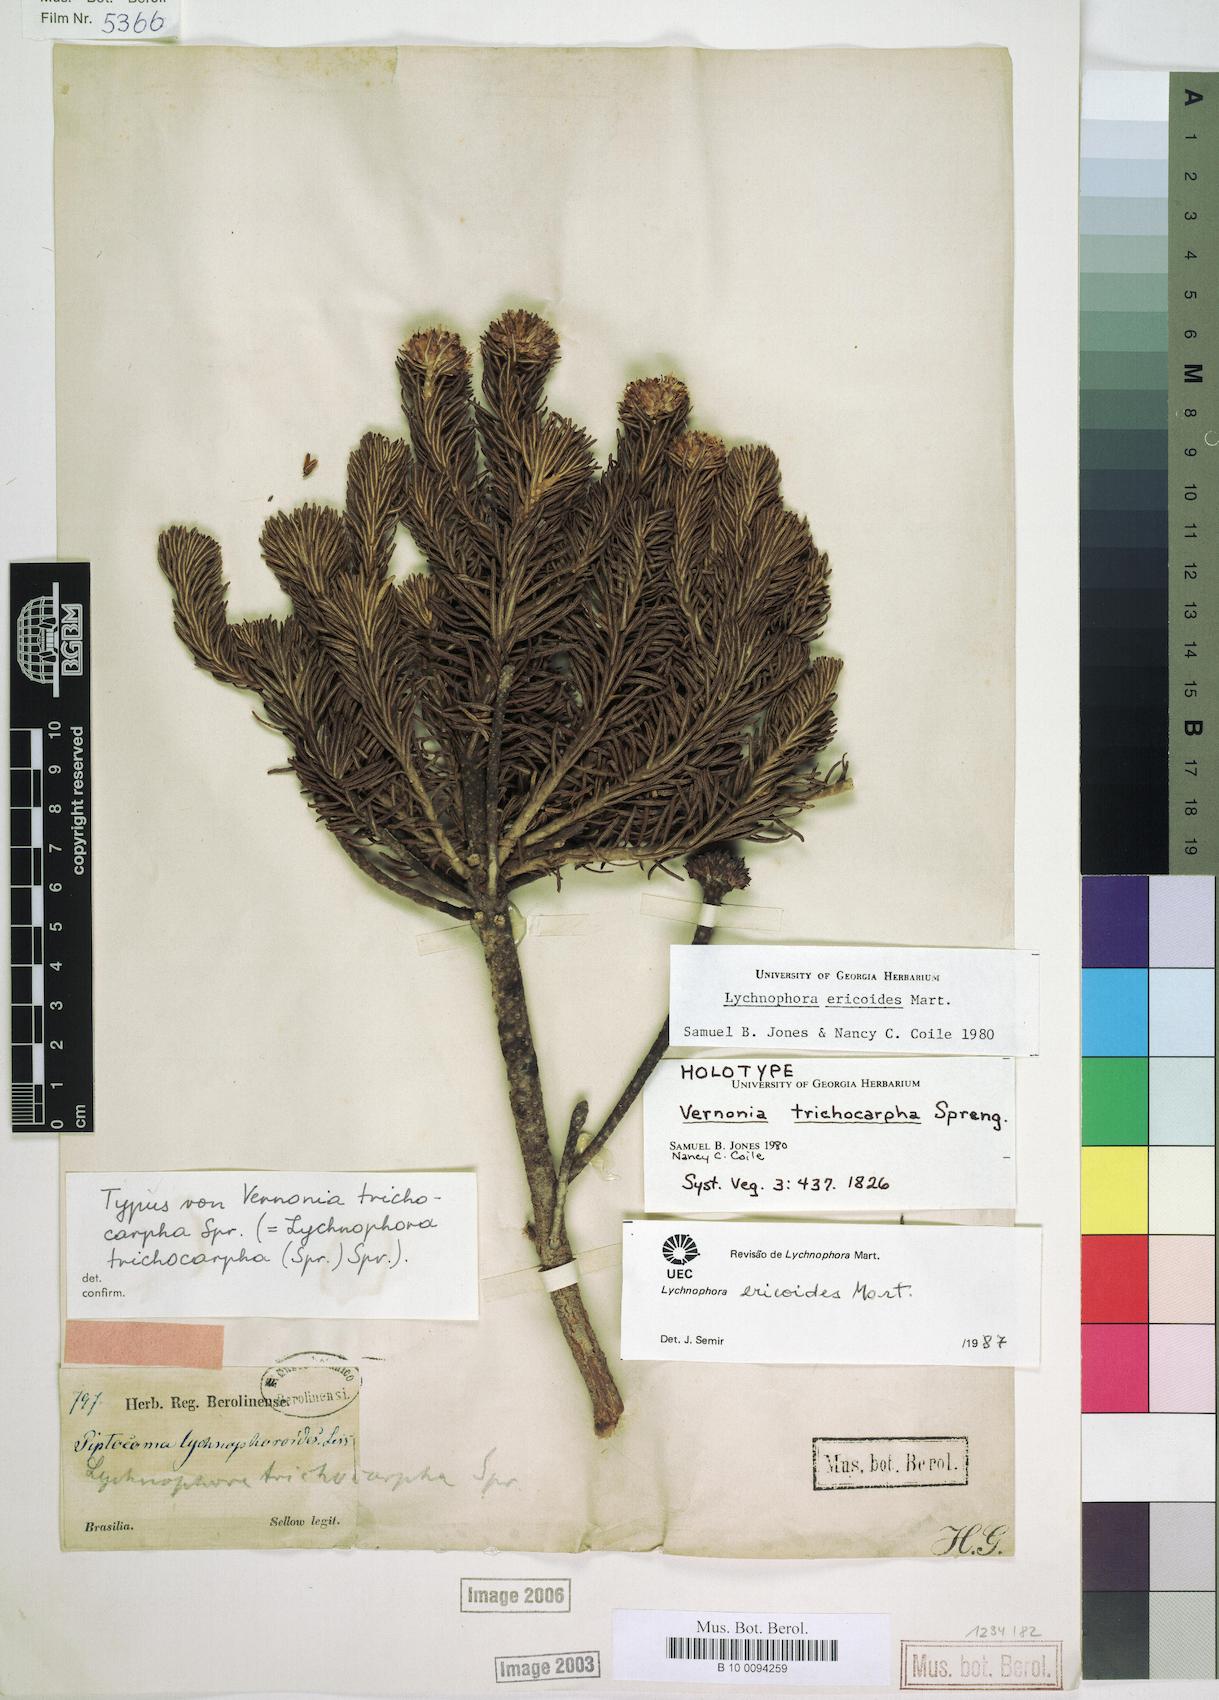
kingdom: Plantae
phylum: Tracheophyta
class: Magnoliopsida
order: Asterales
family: Asteraceae
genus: Lychnophora
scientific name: Lychnophora ericoides
